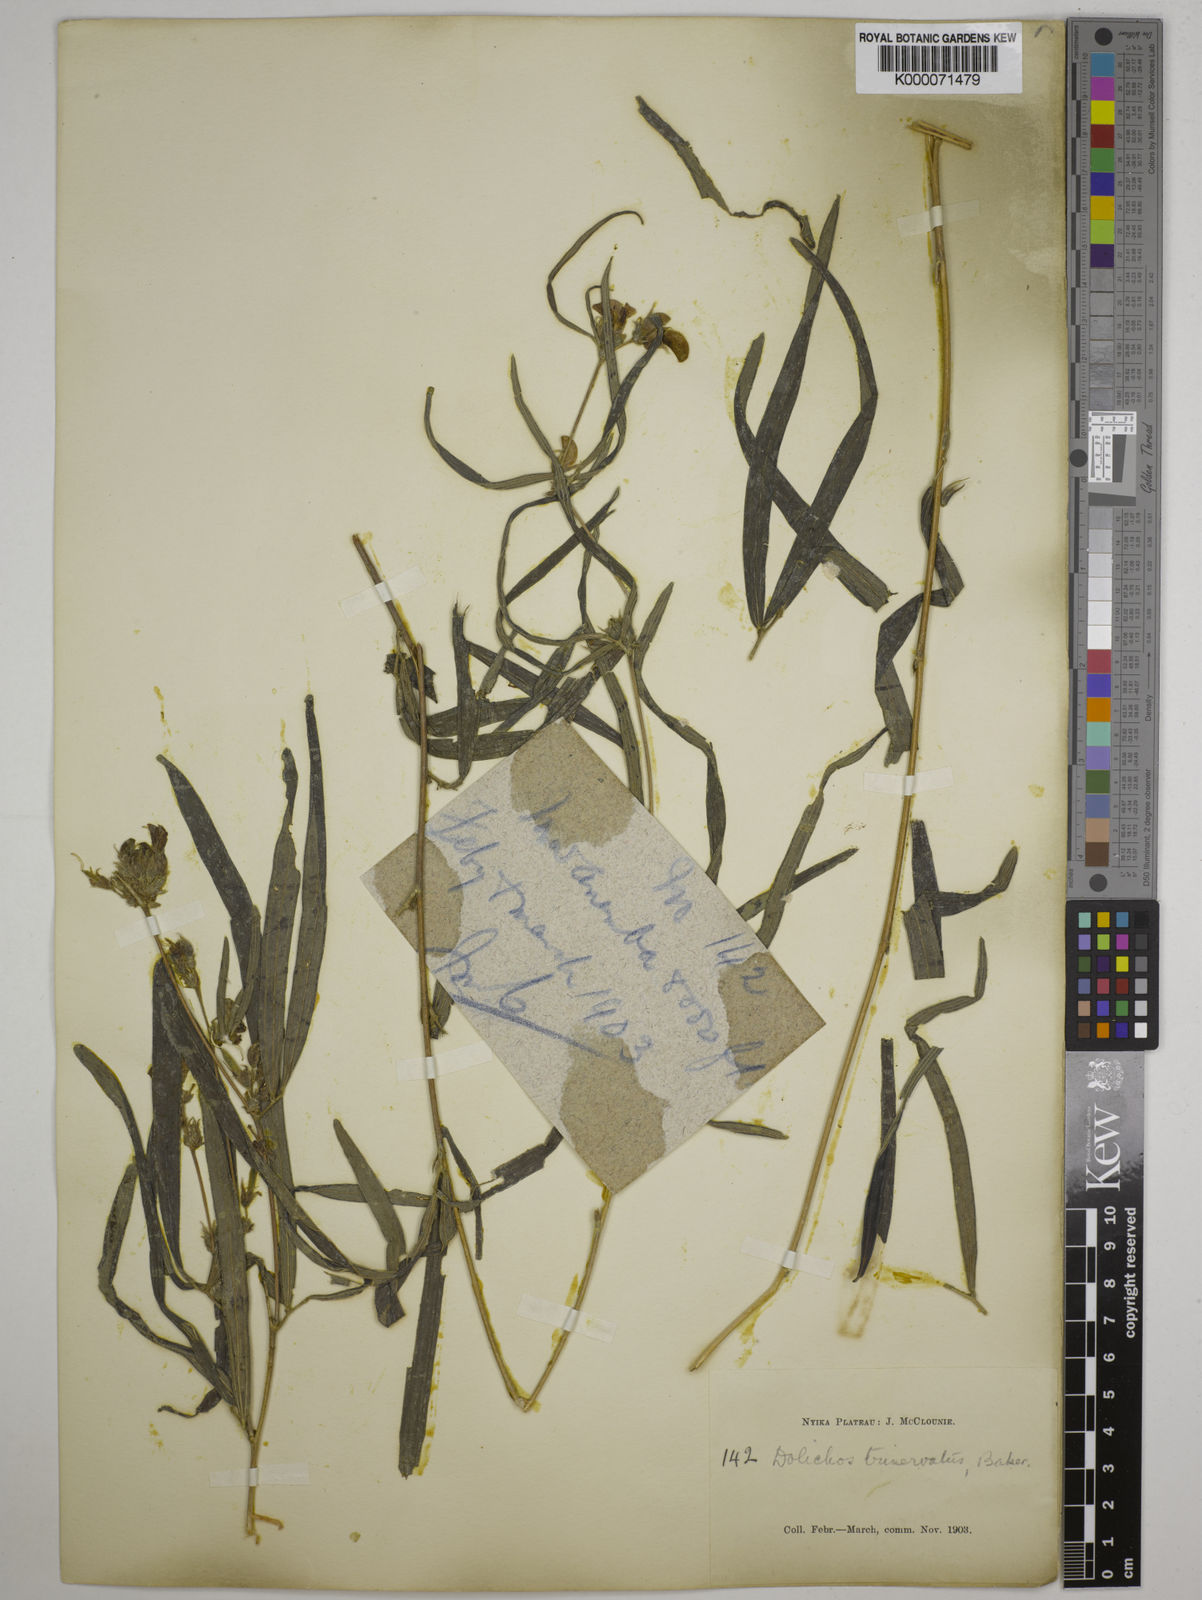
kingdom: Plantae
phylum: Tracheophyta
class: Magnoliopsida
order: Fabales
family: Fabaceae
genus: Dolichos
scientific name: Dolichos trinervatus
